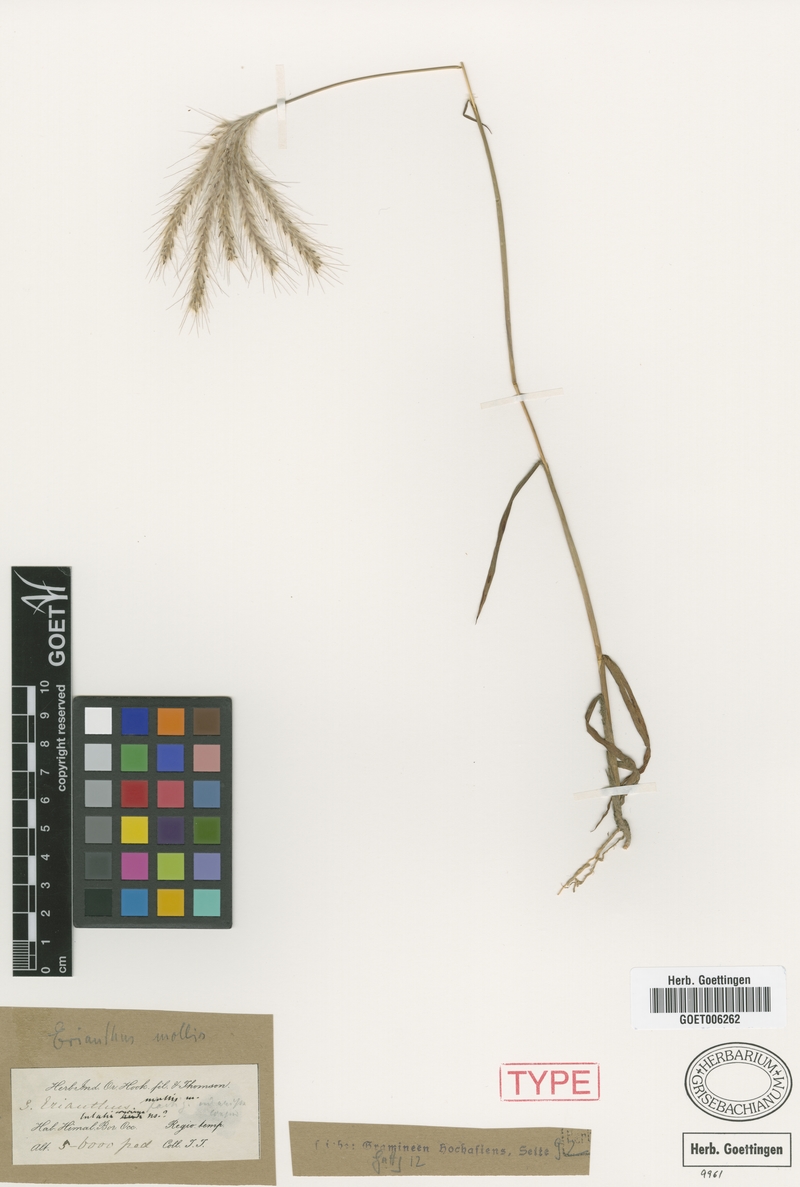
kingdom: Plantae
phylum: Tracheophyta
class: Liliopsida
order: Poales
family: Poaceae
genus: Eulalia
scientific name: Eulalia mollis
